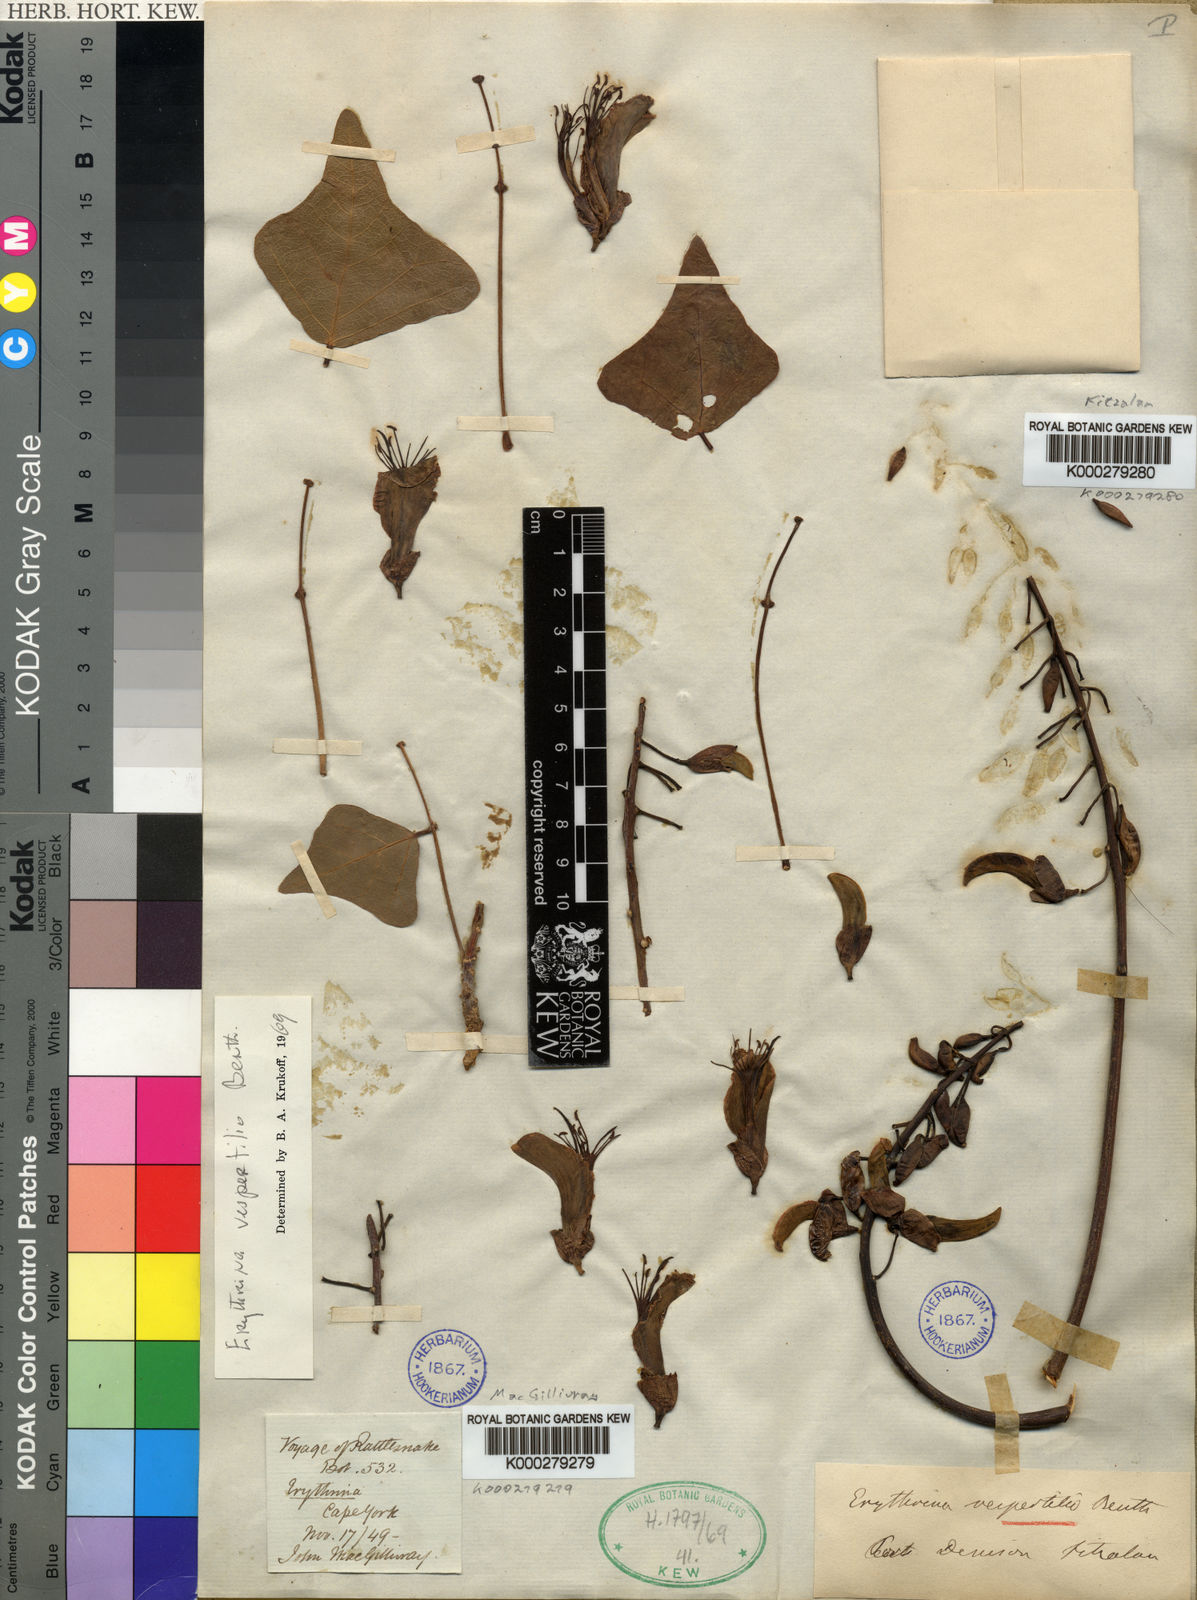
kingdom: Plantae
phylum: Tracheophyta
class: Magnoliopsida
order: Fabales
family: Fabaceae
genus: Erythrina
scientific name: Erythrina vespertilio
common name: Bat-wing coral tree
